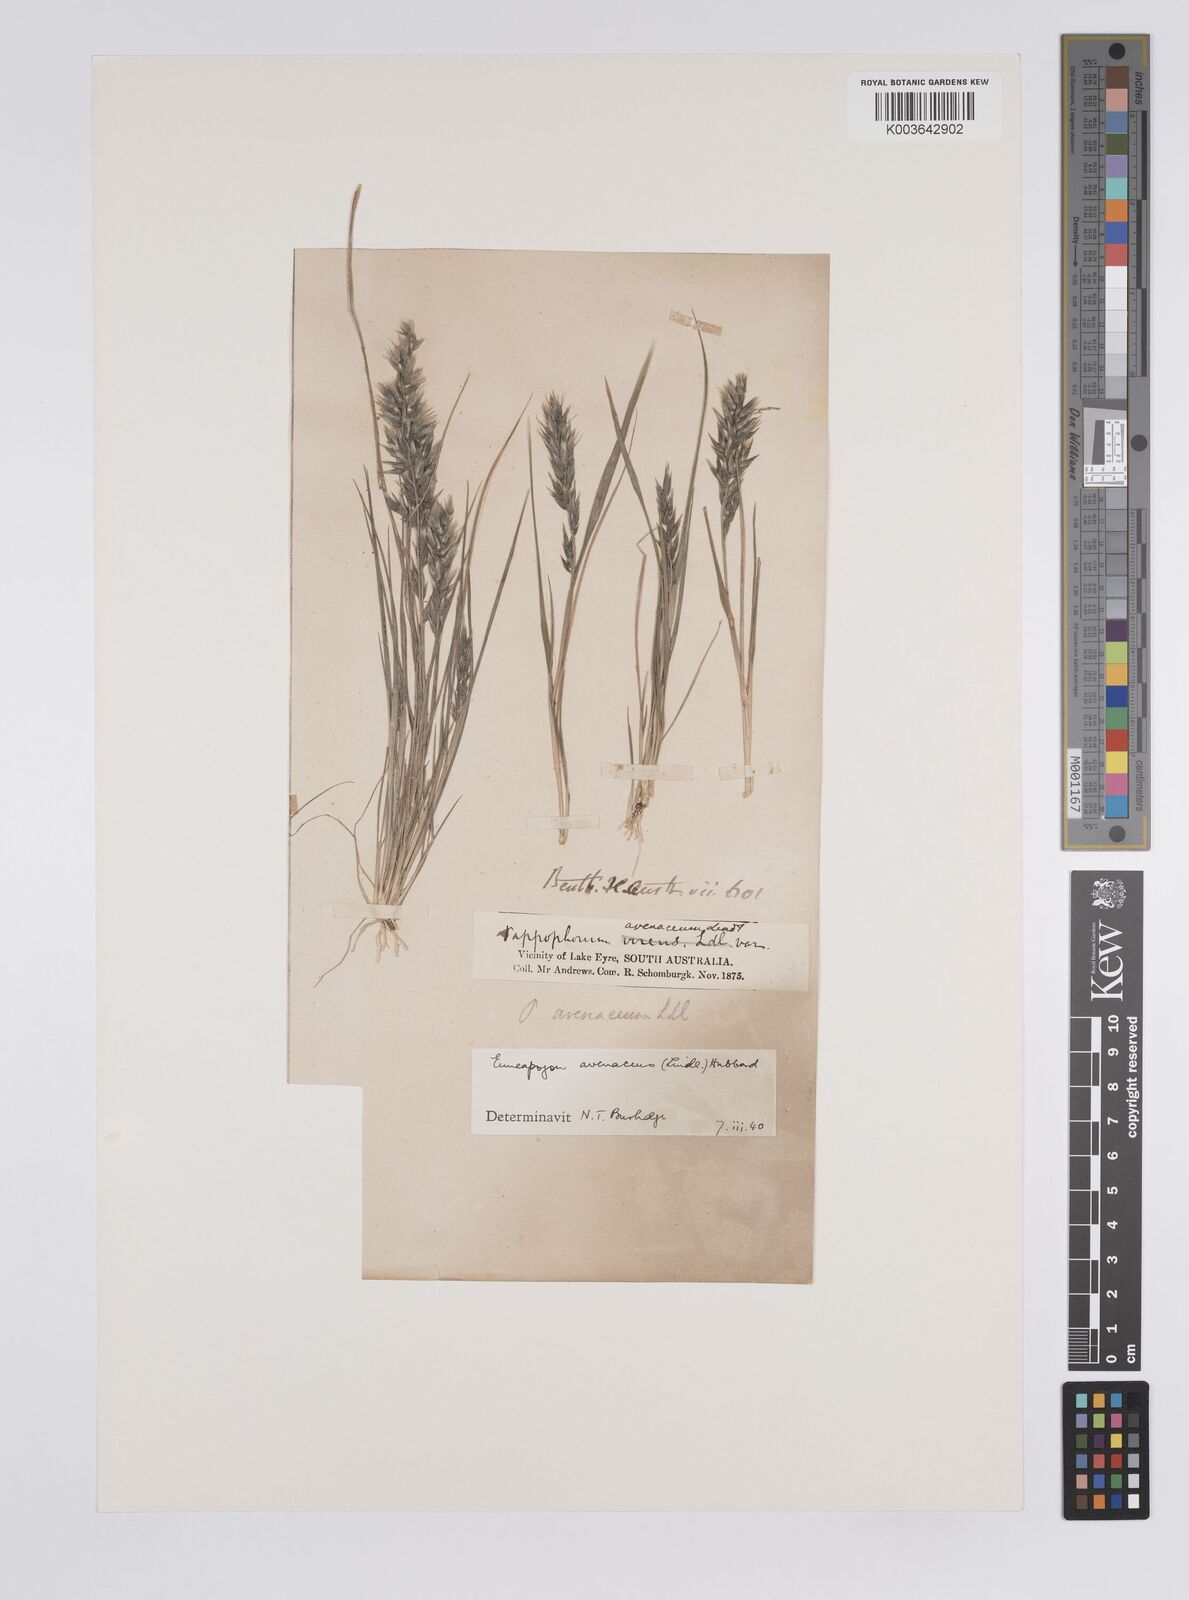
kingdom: Plantae
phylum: Tracheophyta
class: Liliopsida
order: Poales
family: Poaceae
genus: Enneapogon
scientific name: Enneapogon avenaceus
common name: Hairy oat grass
